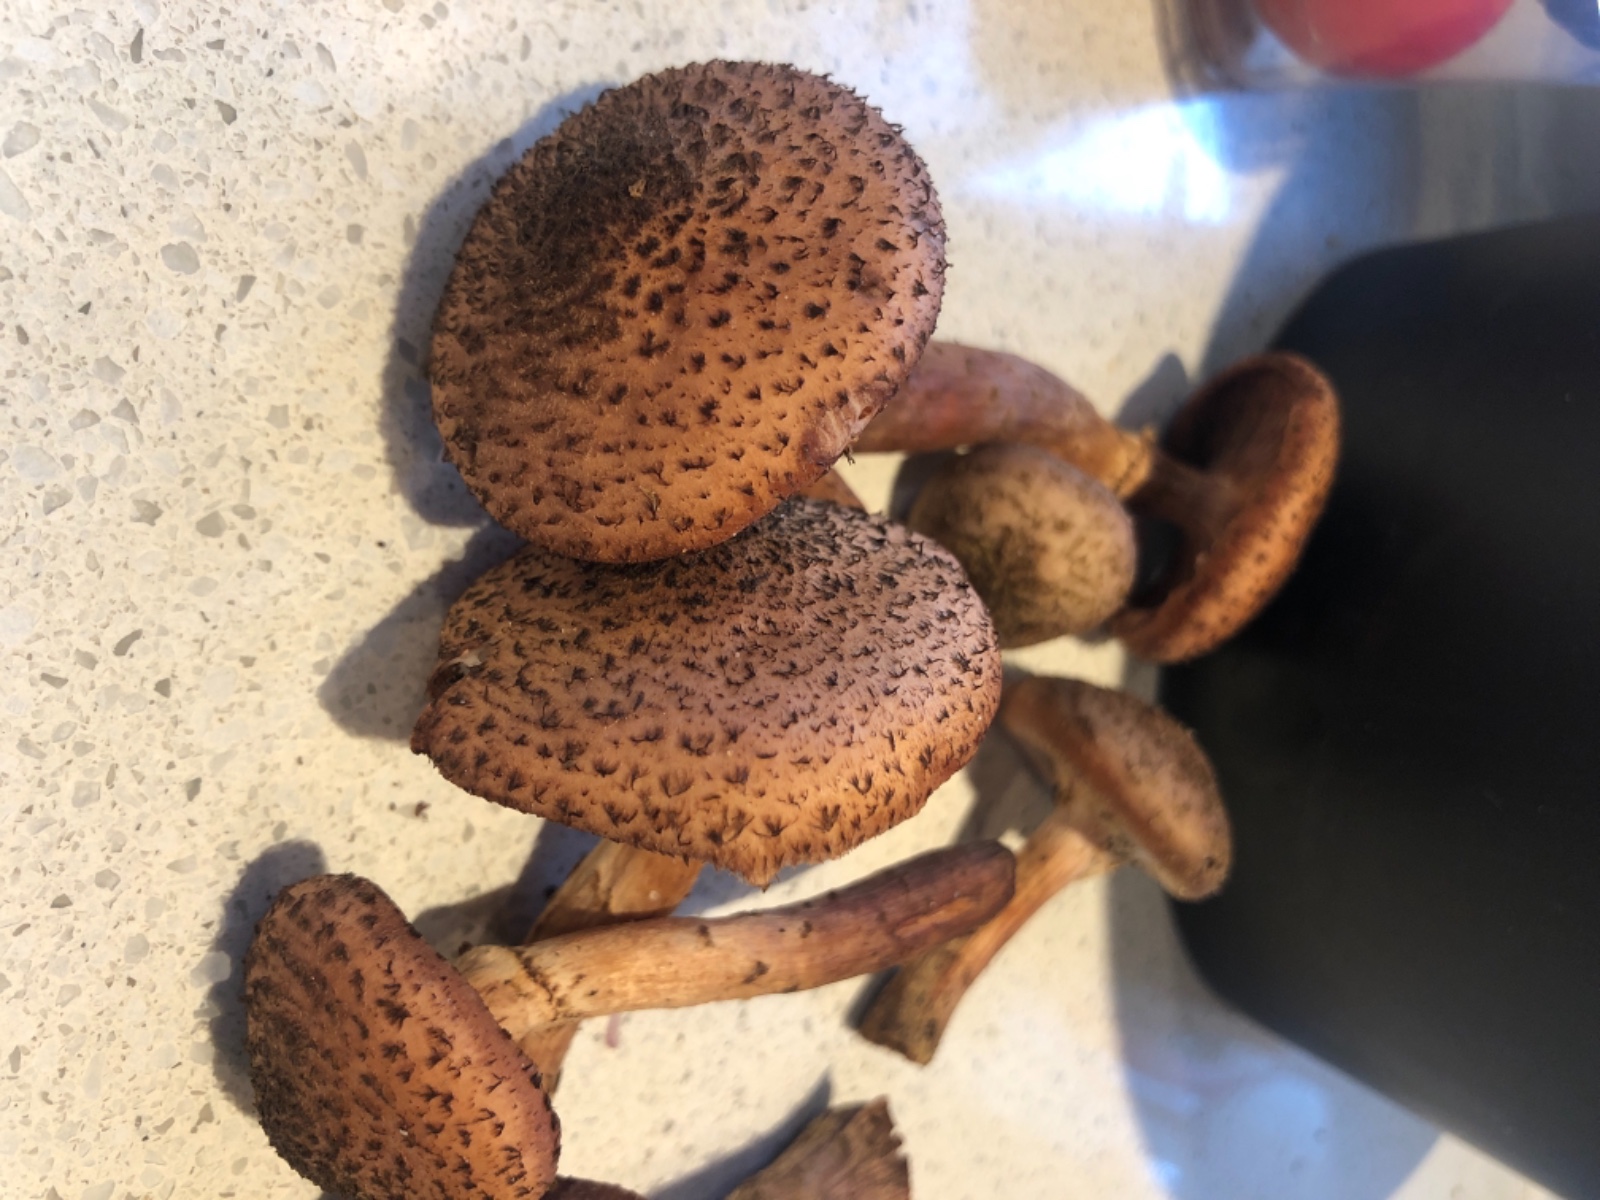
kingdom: Fungi
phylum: Basidiomycota
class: Agaricomycetes
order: Agaricales
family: Physalacriaceae
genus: Armillaria
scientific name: Armillaria ostoyae
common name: mørk honningsvamp
